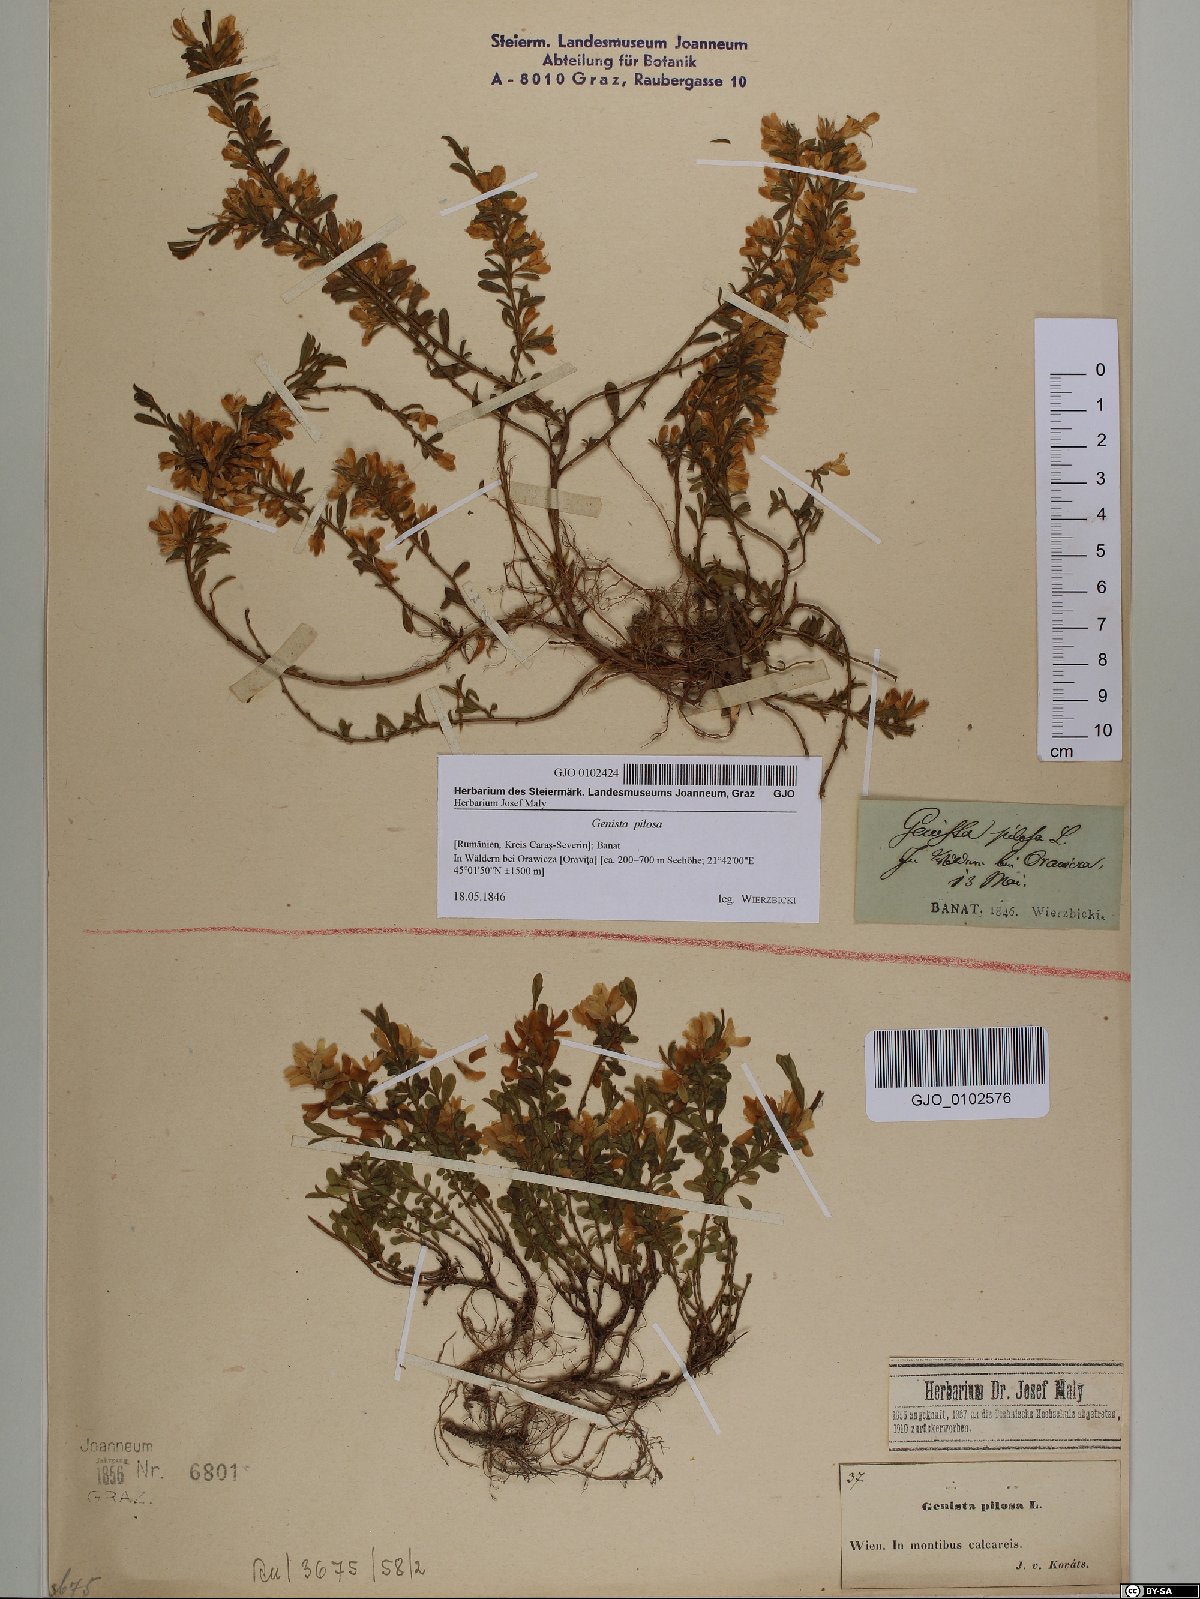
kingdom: Plantae
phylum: Tracheophyta
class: Magnoliopsida
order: Fabales
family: Fabaceae
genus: Genista
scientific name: Genista pilosa
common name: Hairy greenweed
